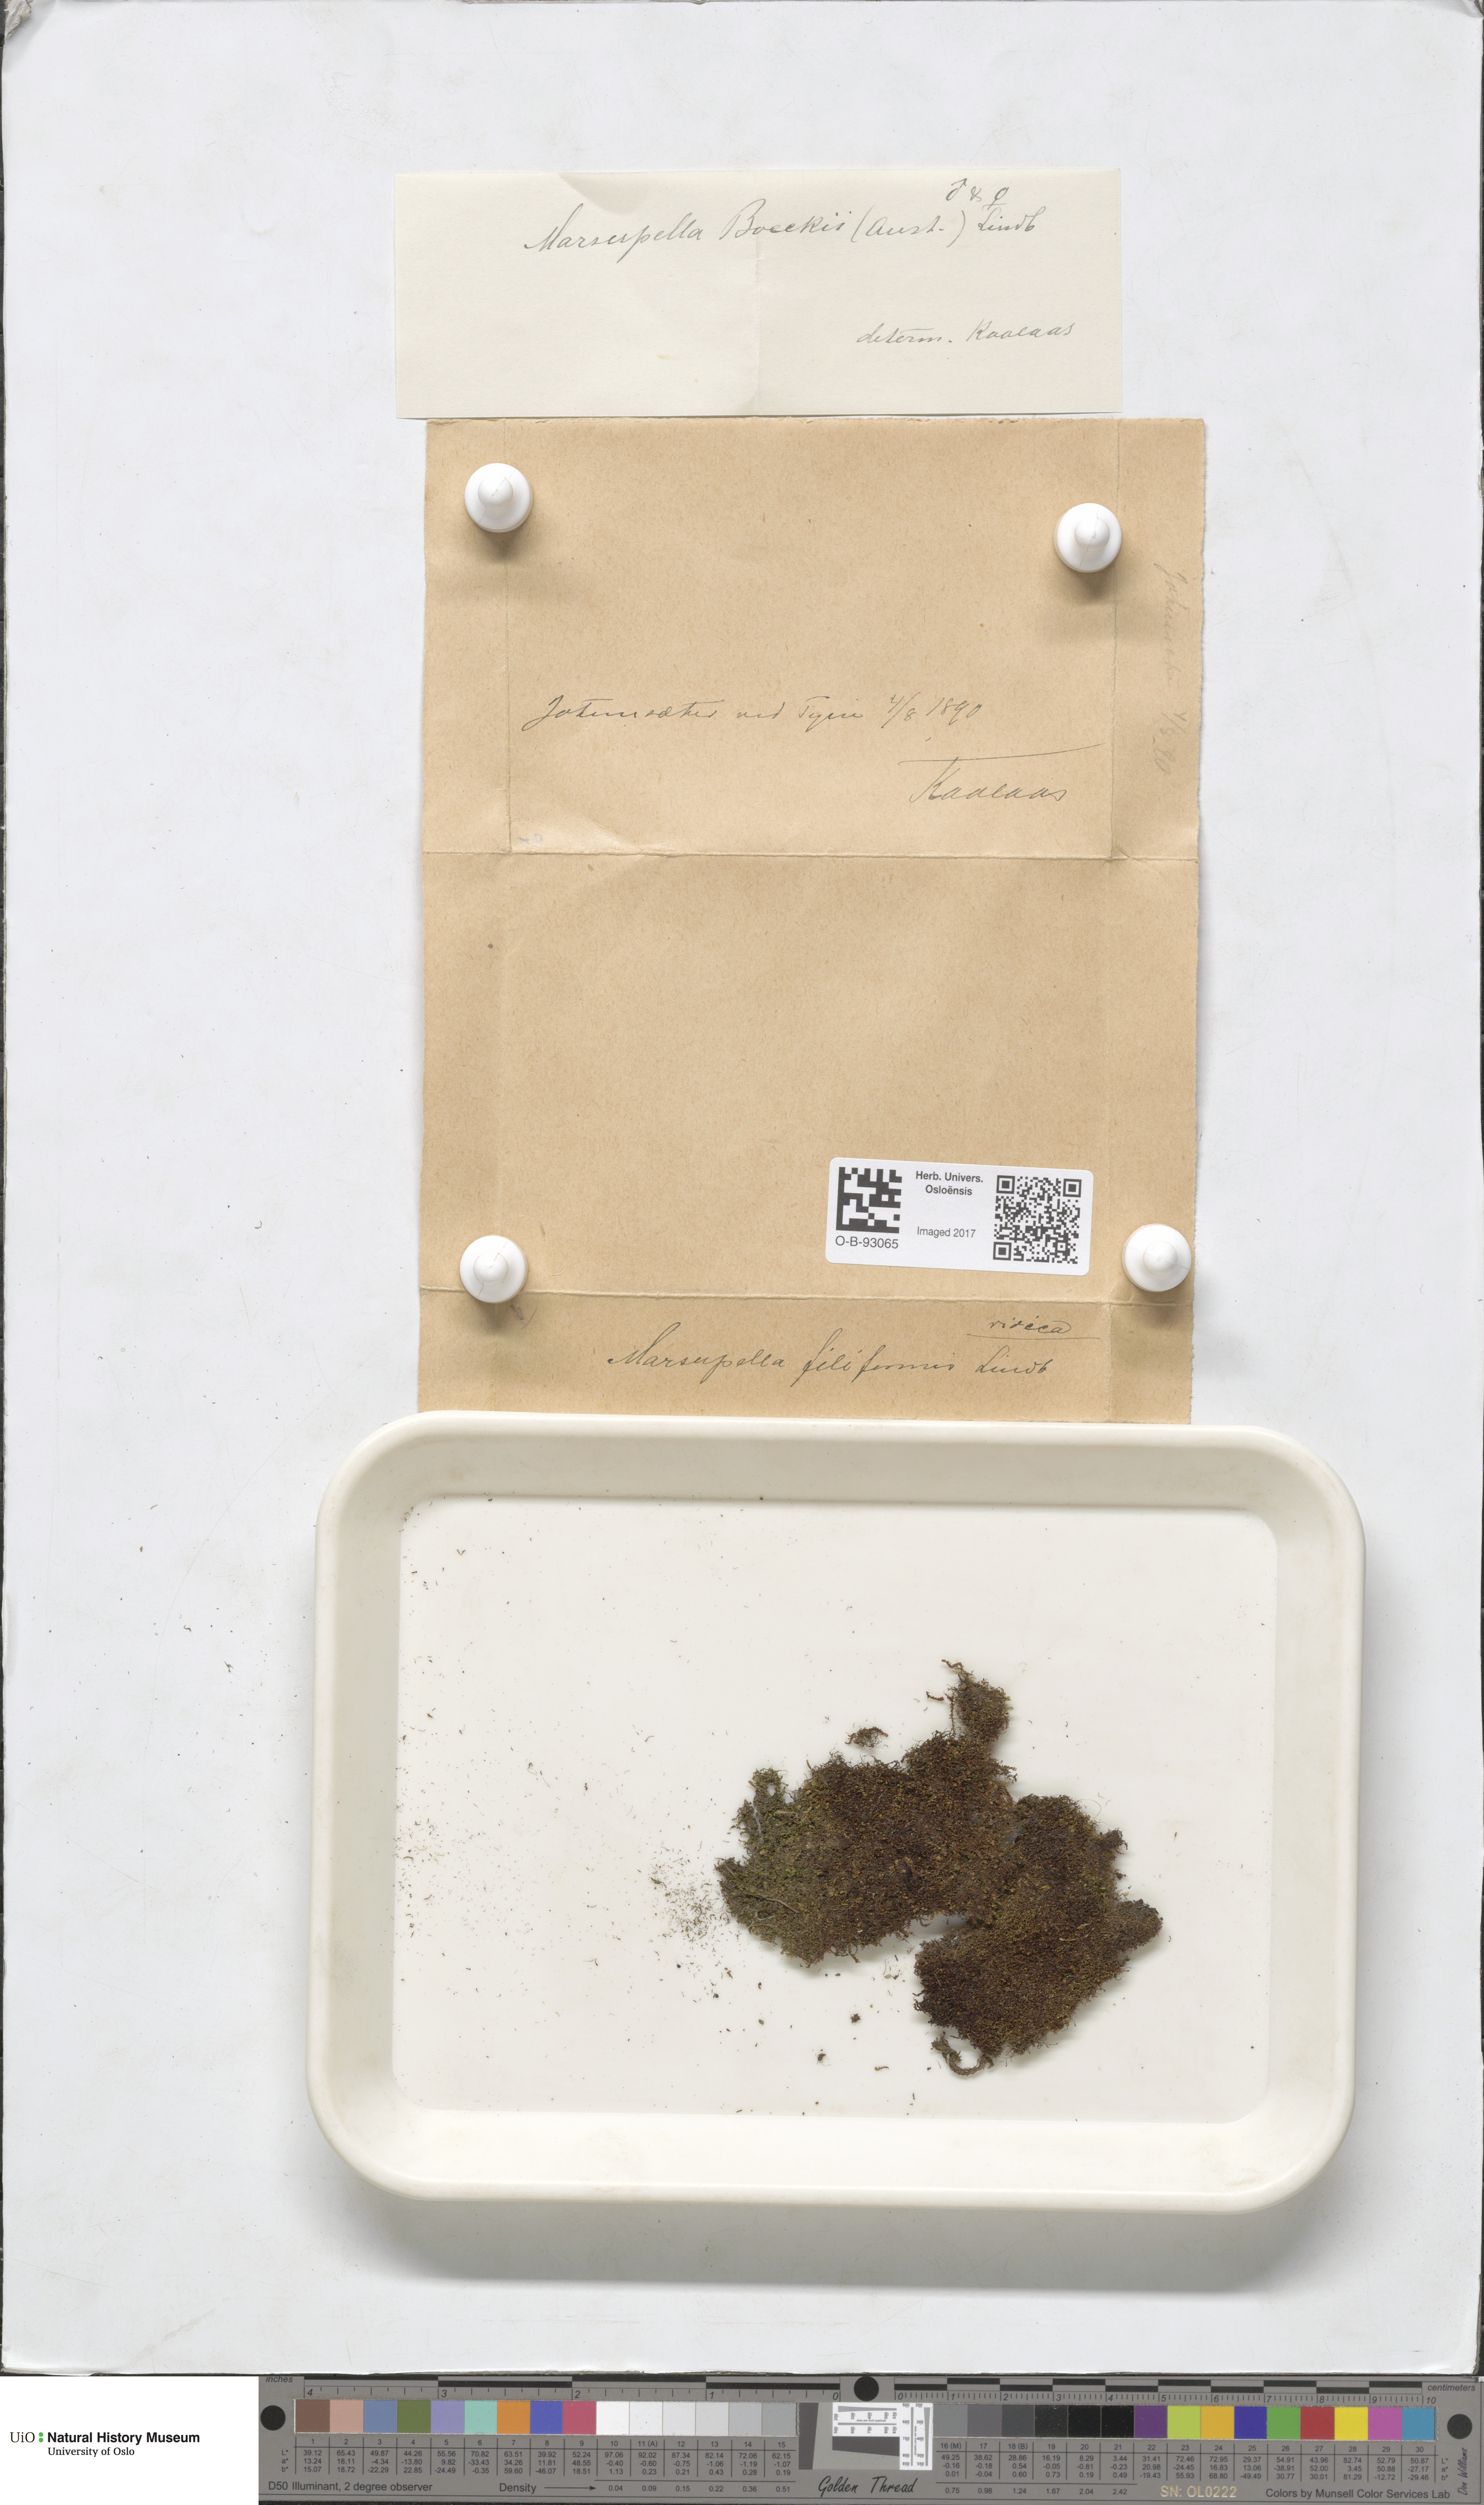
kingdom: Plantae
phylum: Marchantiophyta
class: Jungermanniopsida
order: Jungermanniales
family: Gymnomitriaceae
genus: Marsupella
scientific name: Marsupella boeckii
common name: Boeck s rustwort
